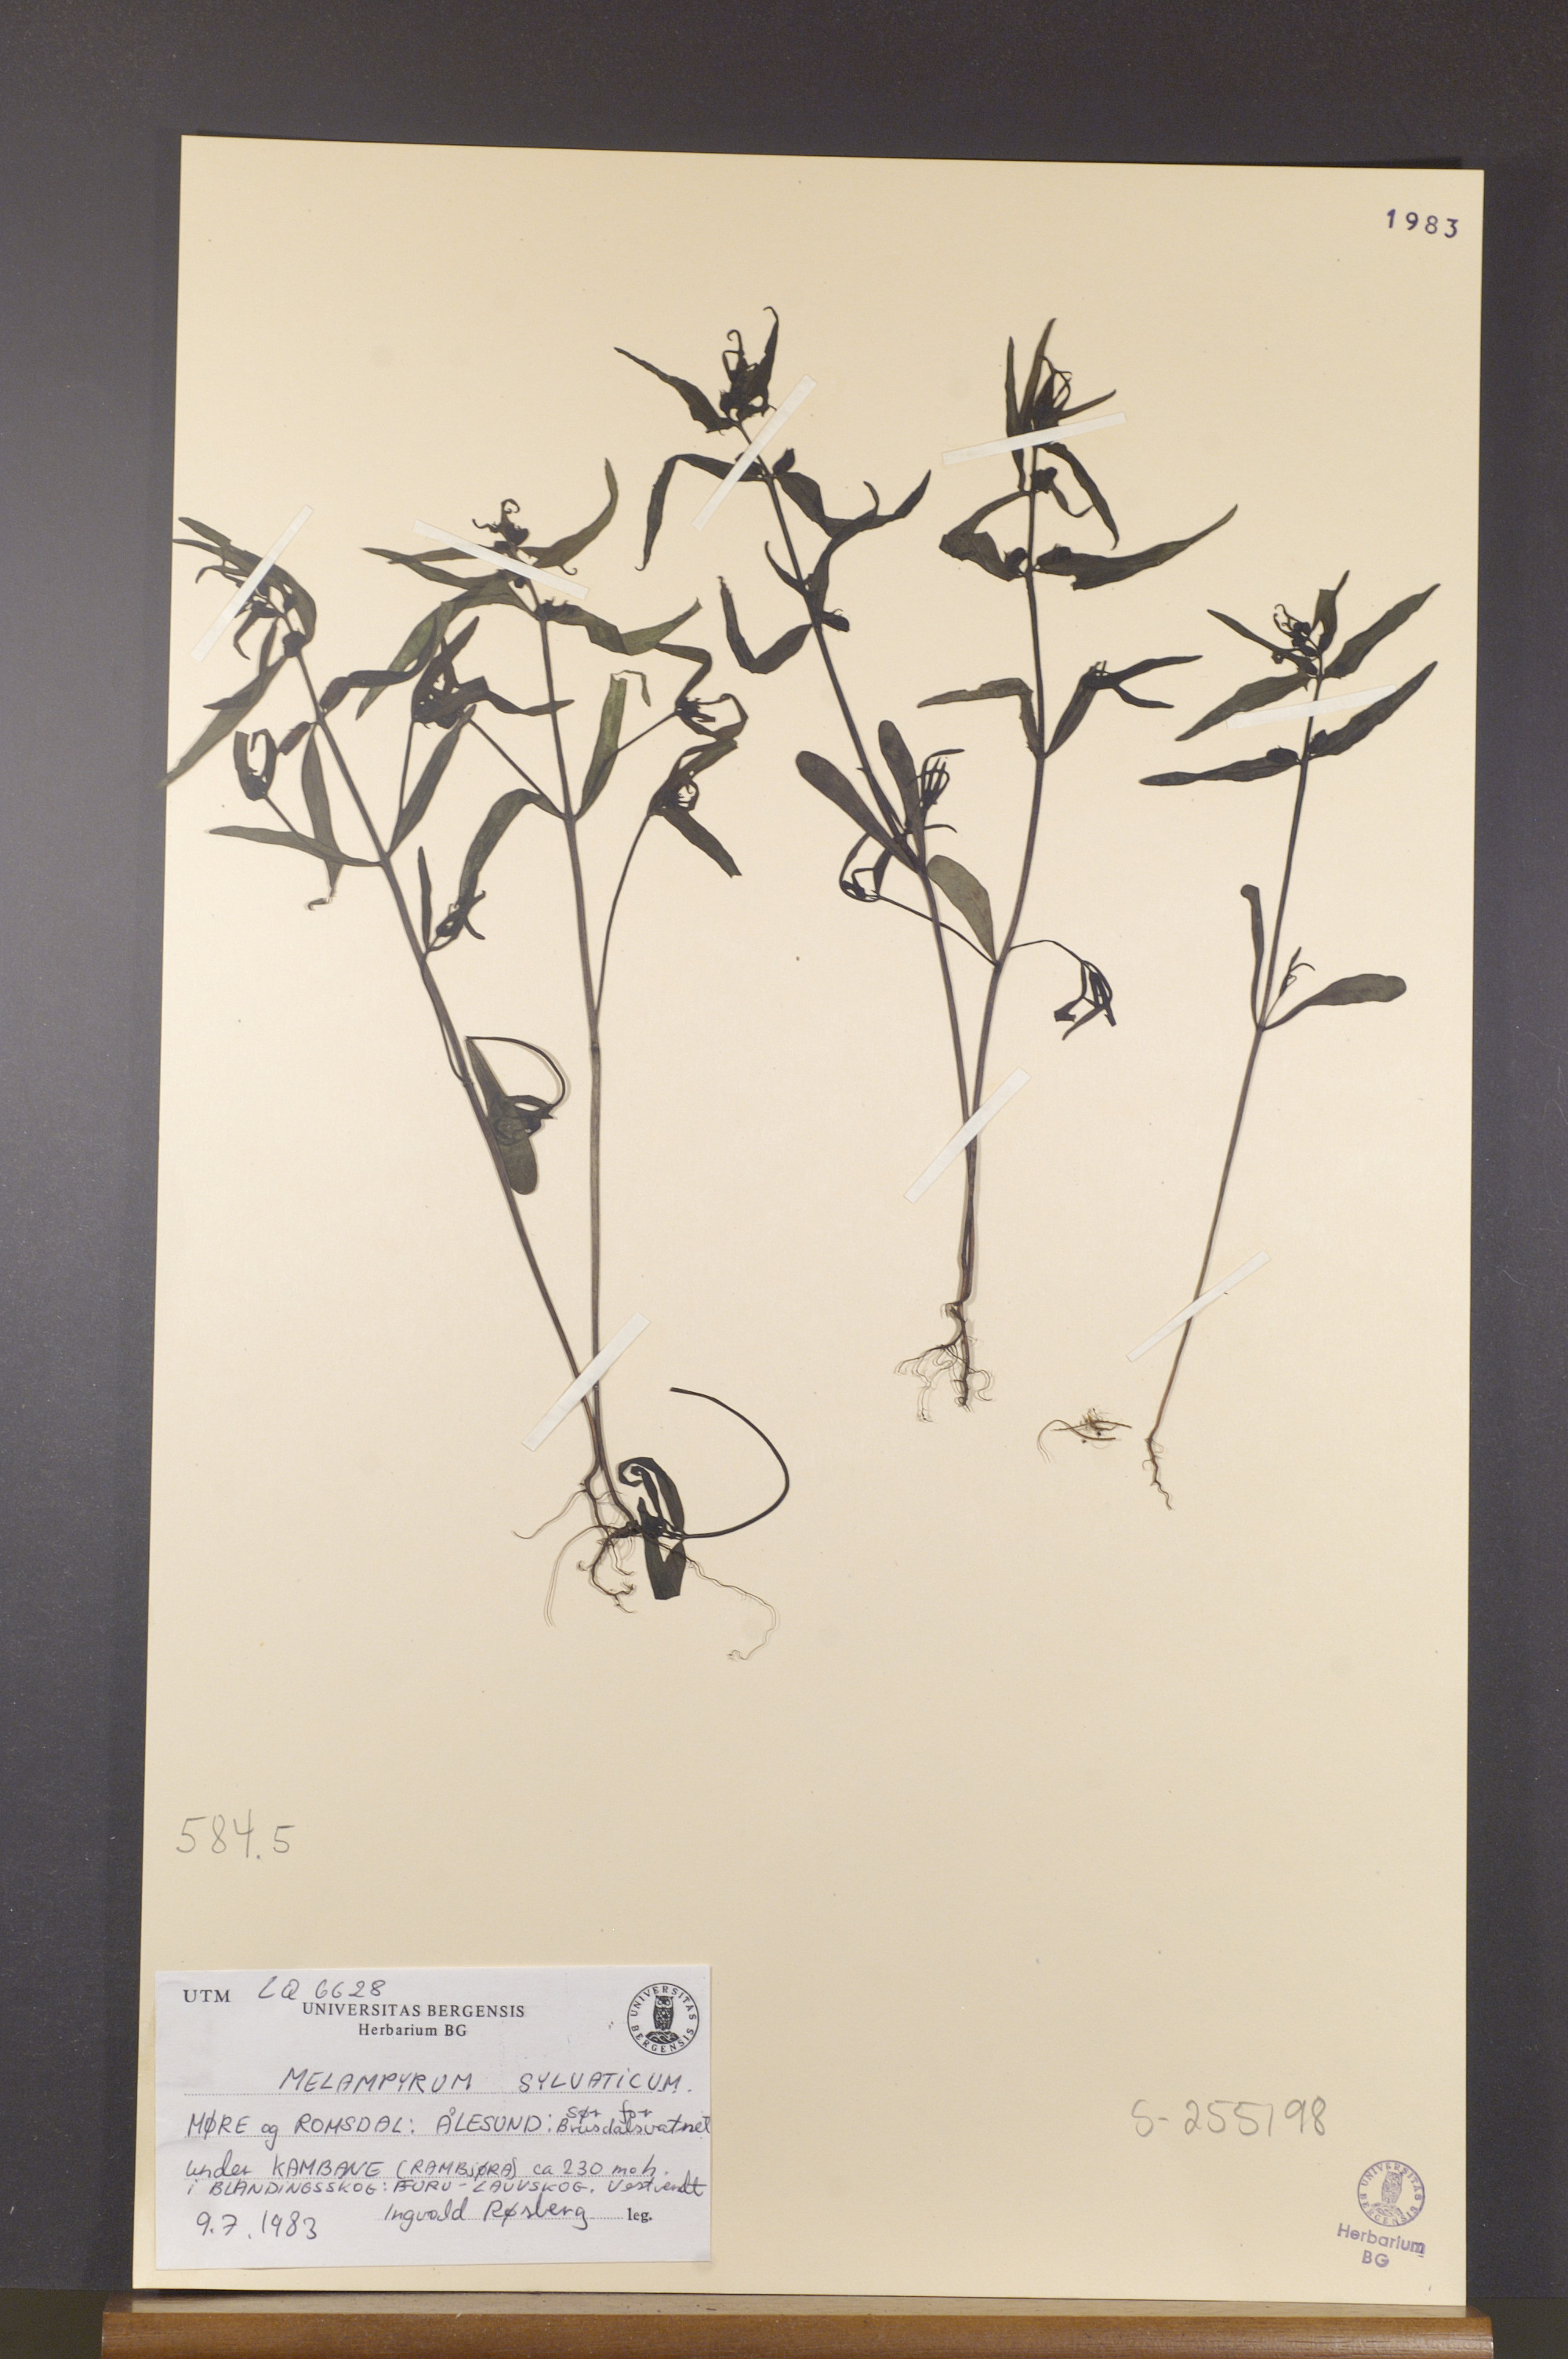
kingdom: Plantae
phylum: Tracheophyta
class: Magnoliopsida
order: Lamiales
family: Orobanchaceae
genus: Melampyrum
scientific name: Melampyrum sylvaticum
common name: Small cow-wheat
